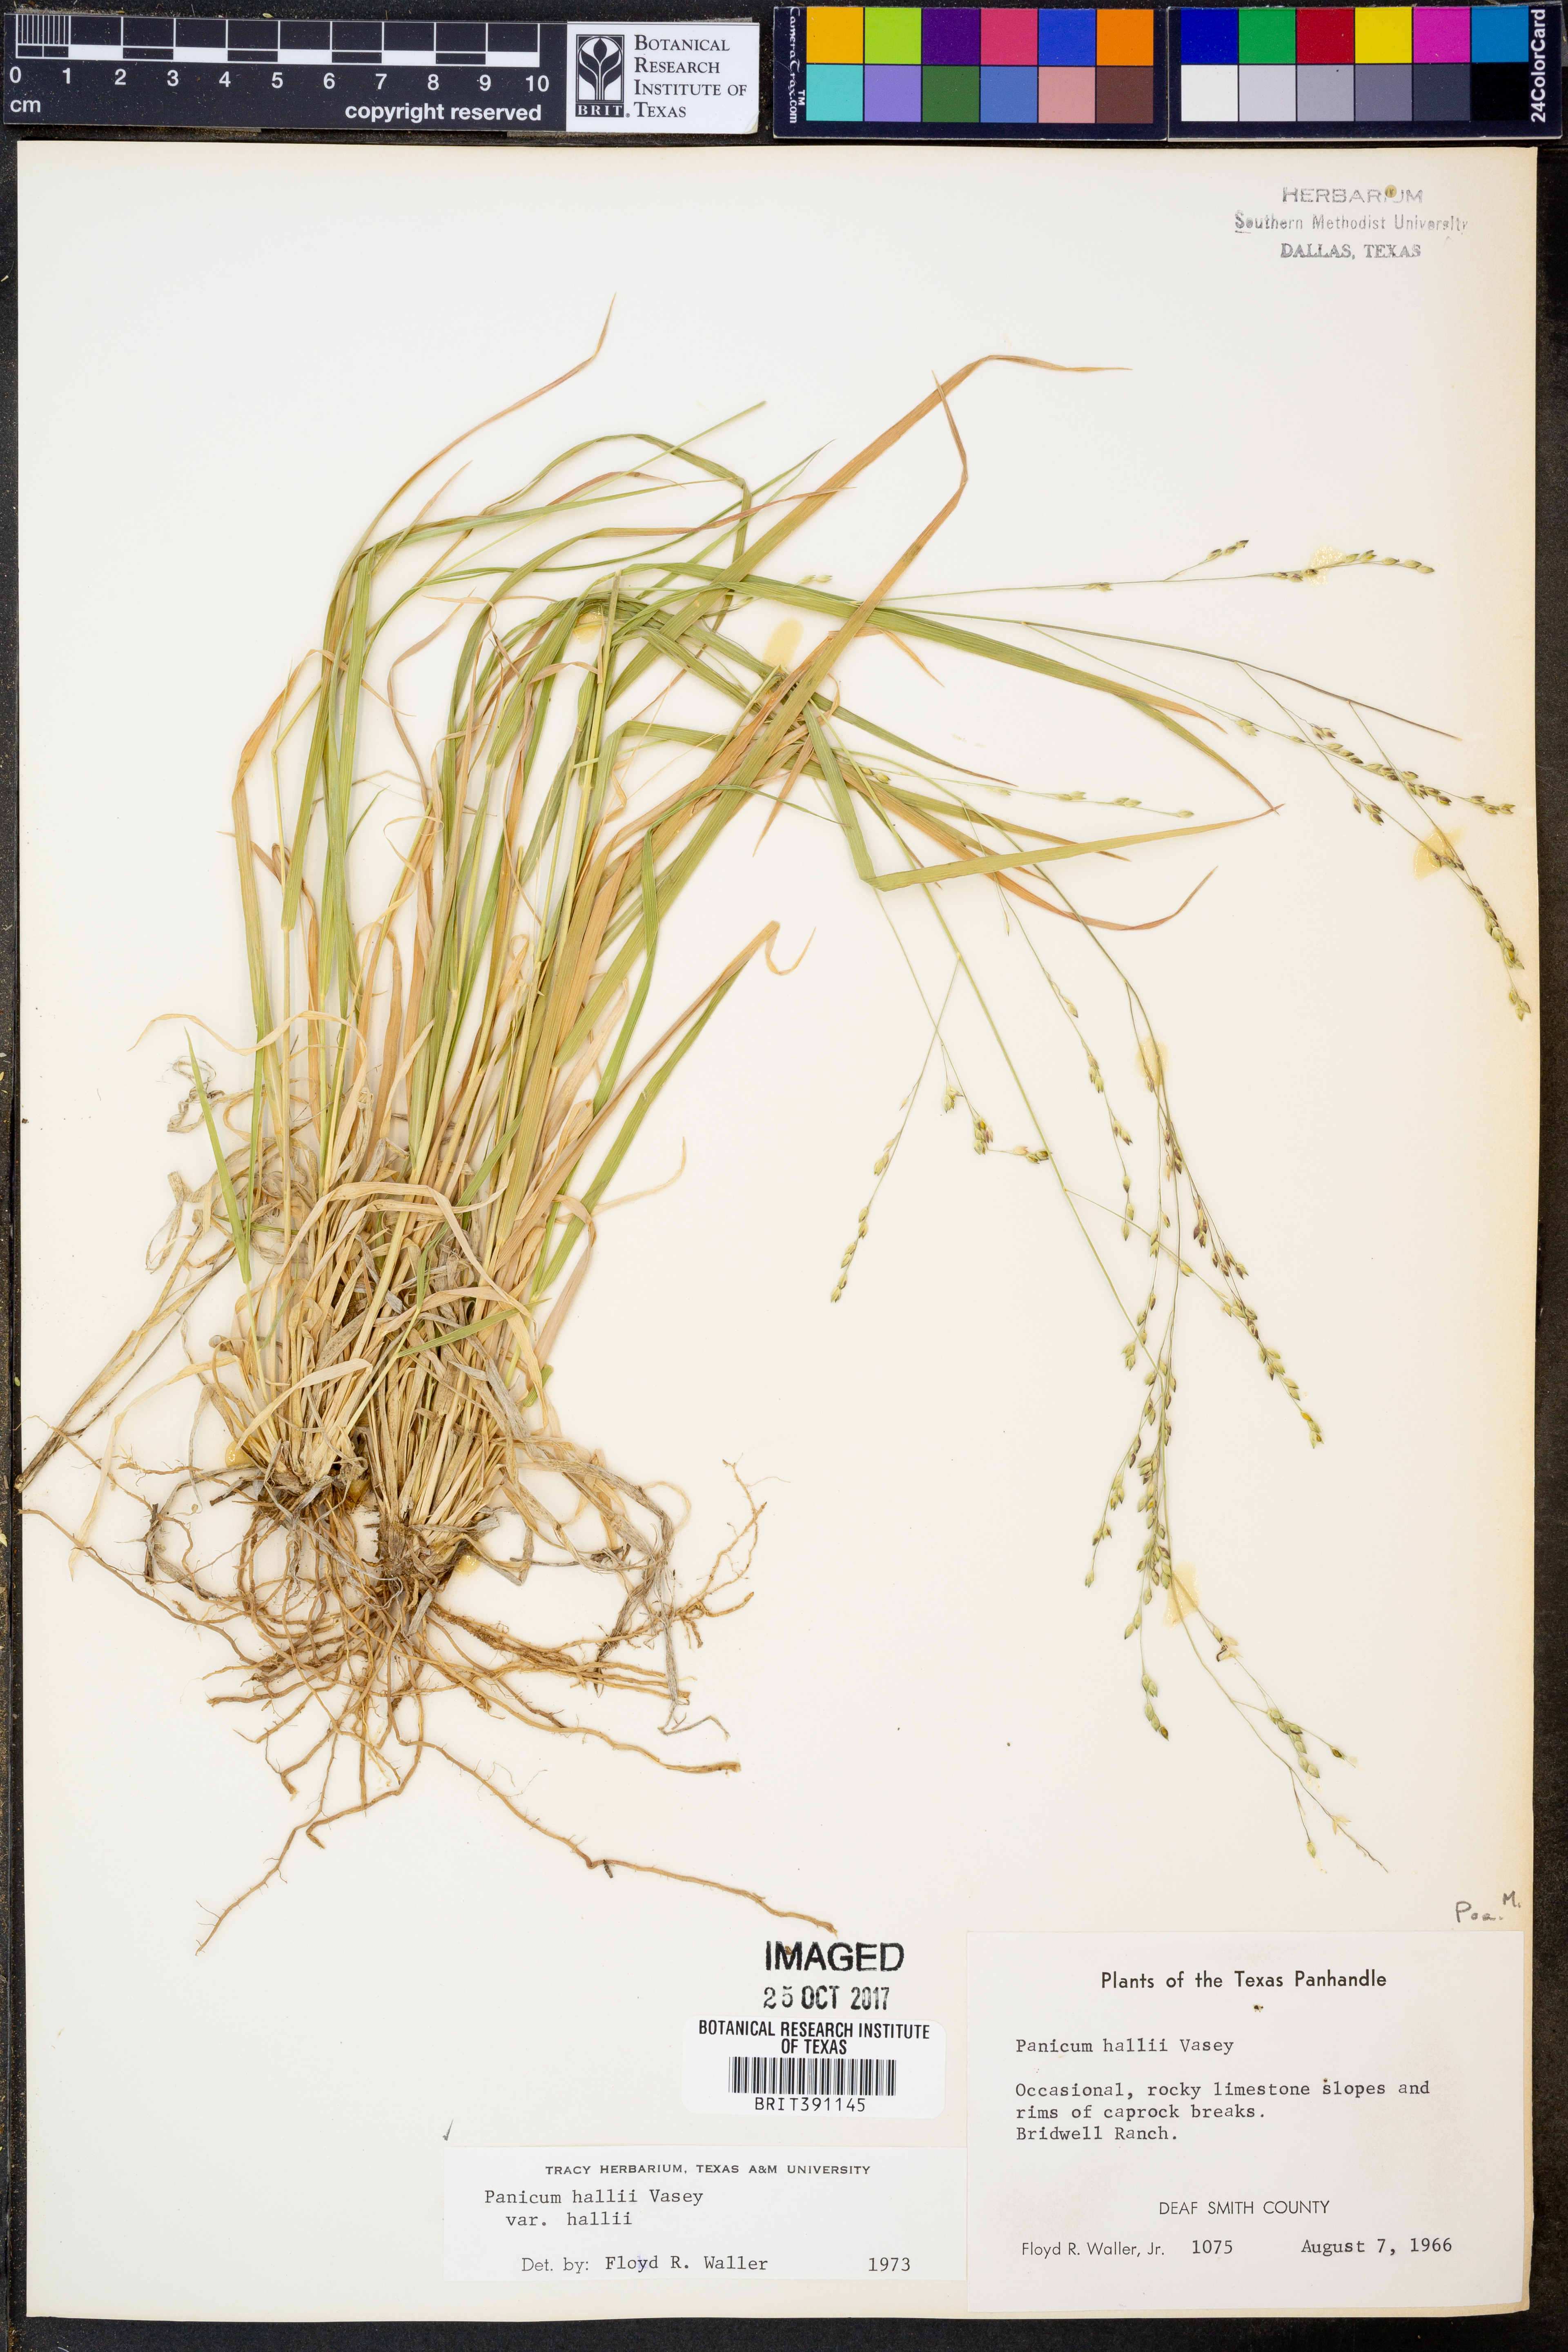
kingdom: Plantae
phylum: Tracheophyta
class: Liliopsida
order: Poales
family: Poaceae
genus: Panicum
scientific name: Panicum hallii
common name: Hall's witchgrass
